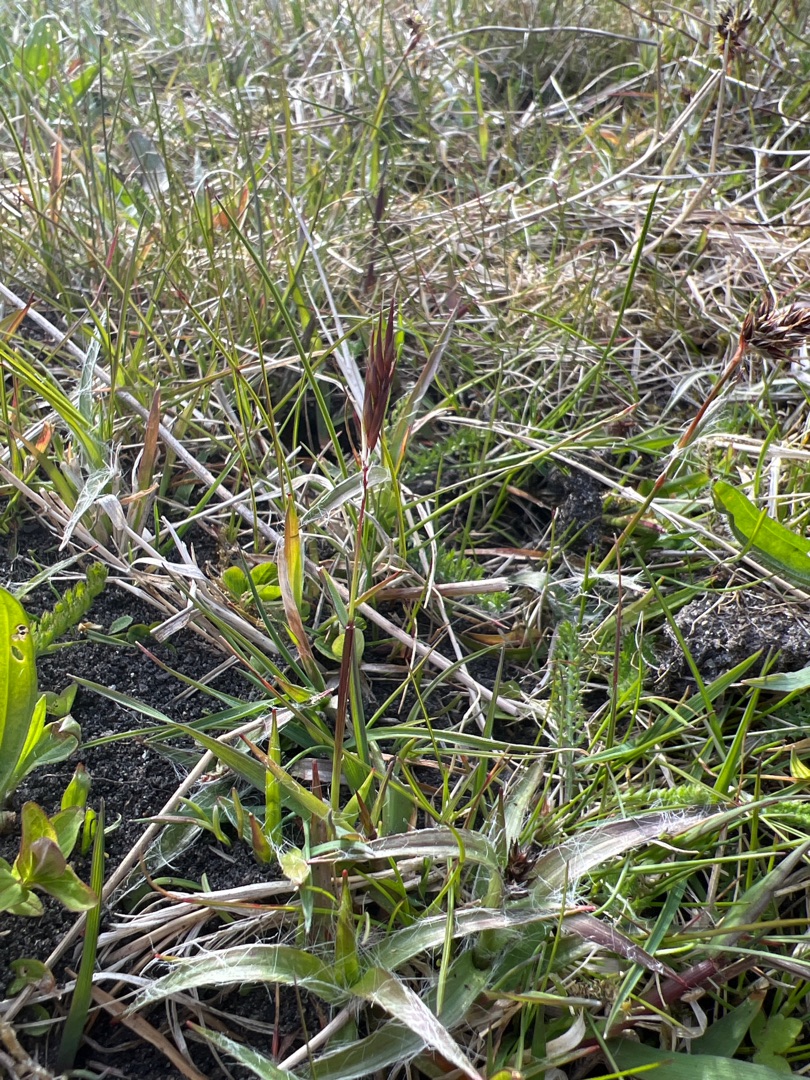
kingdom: Plantae
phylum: Tracheophyta
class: Liliopsida
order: Poales
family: Poaceae
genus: Anthoxanthum
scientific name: Anthoxanthum odoratum
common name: Vellugtende gulaks
